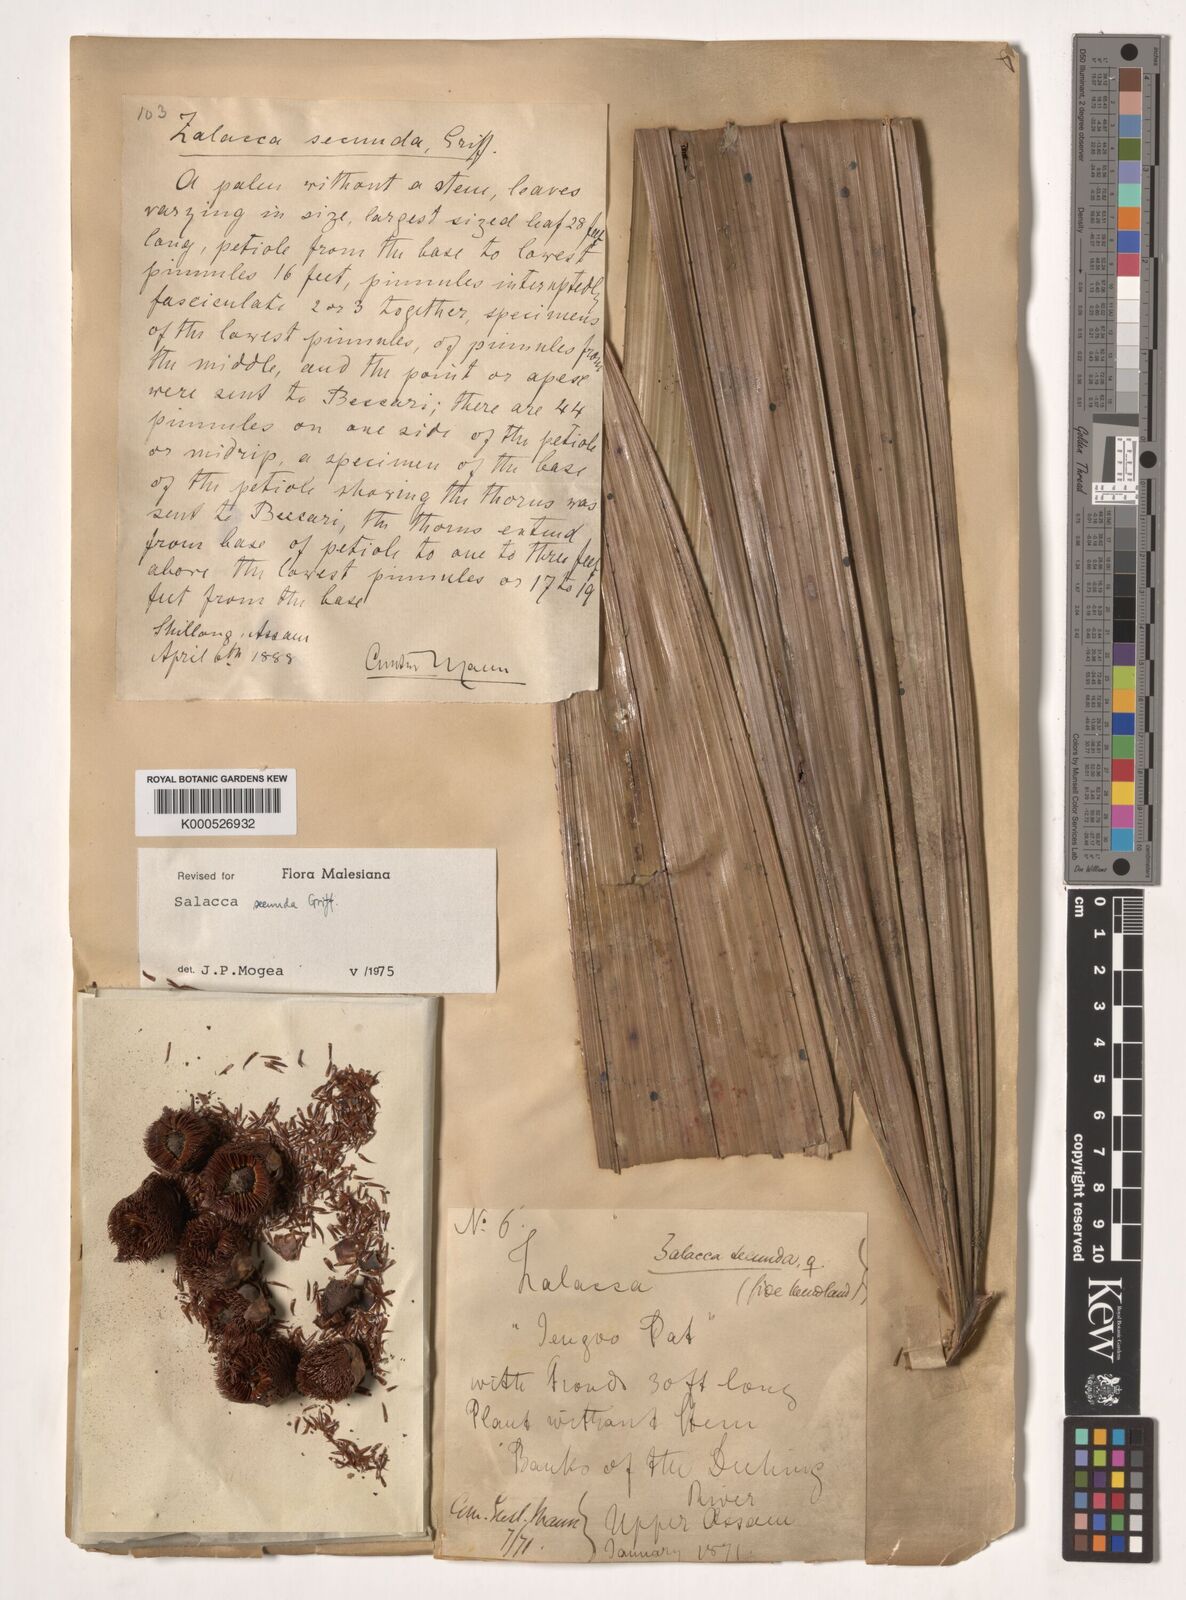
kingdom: Plantae
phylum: Tracheophyta
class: Liliopsida
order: Arecales
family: Arecaceae
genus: Salacca
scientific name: Salacca secunda
